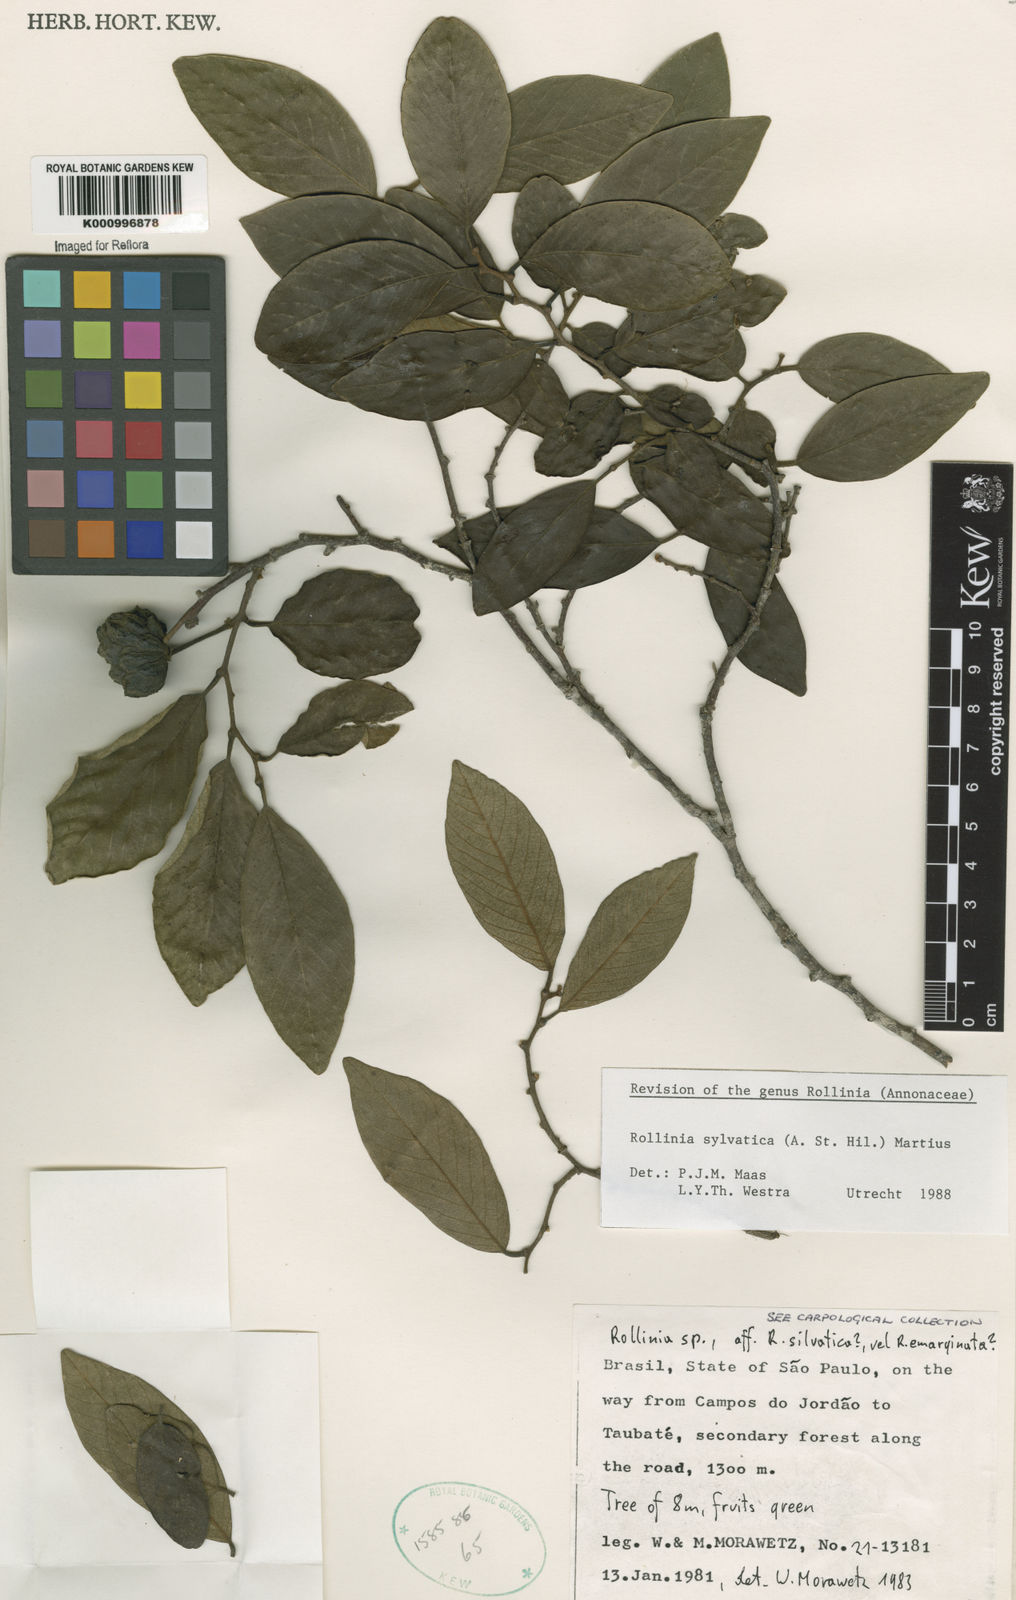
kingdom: Plantae
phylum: Tracheophyta
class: Magnoliopsida
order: Magnoliales
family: Annonaceae
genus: Annona
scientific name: Annona sylvatica
